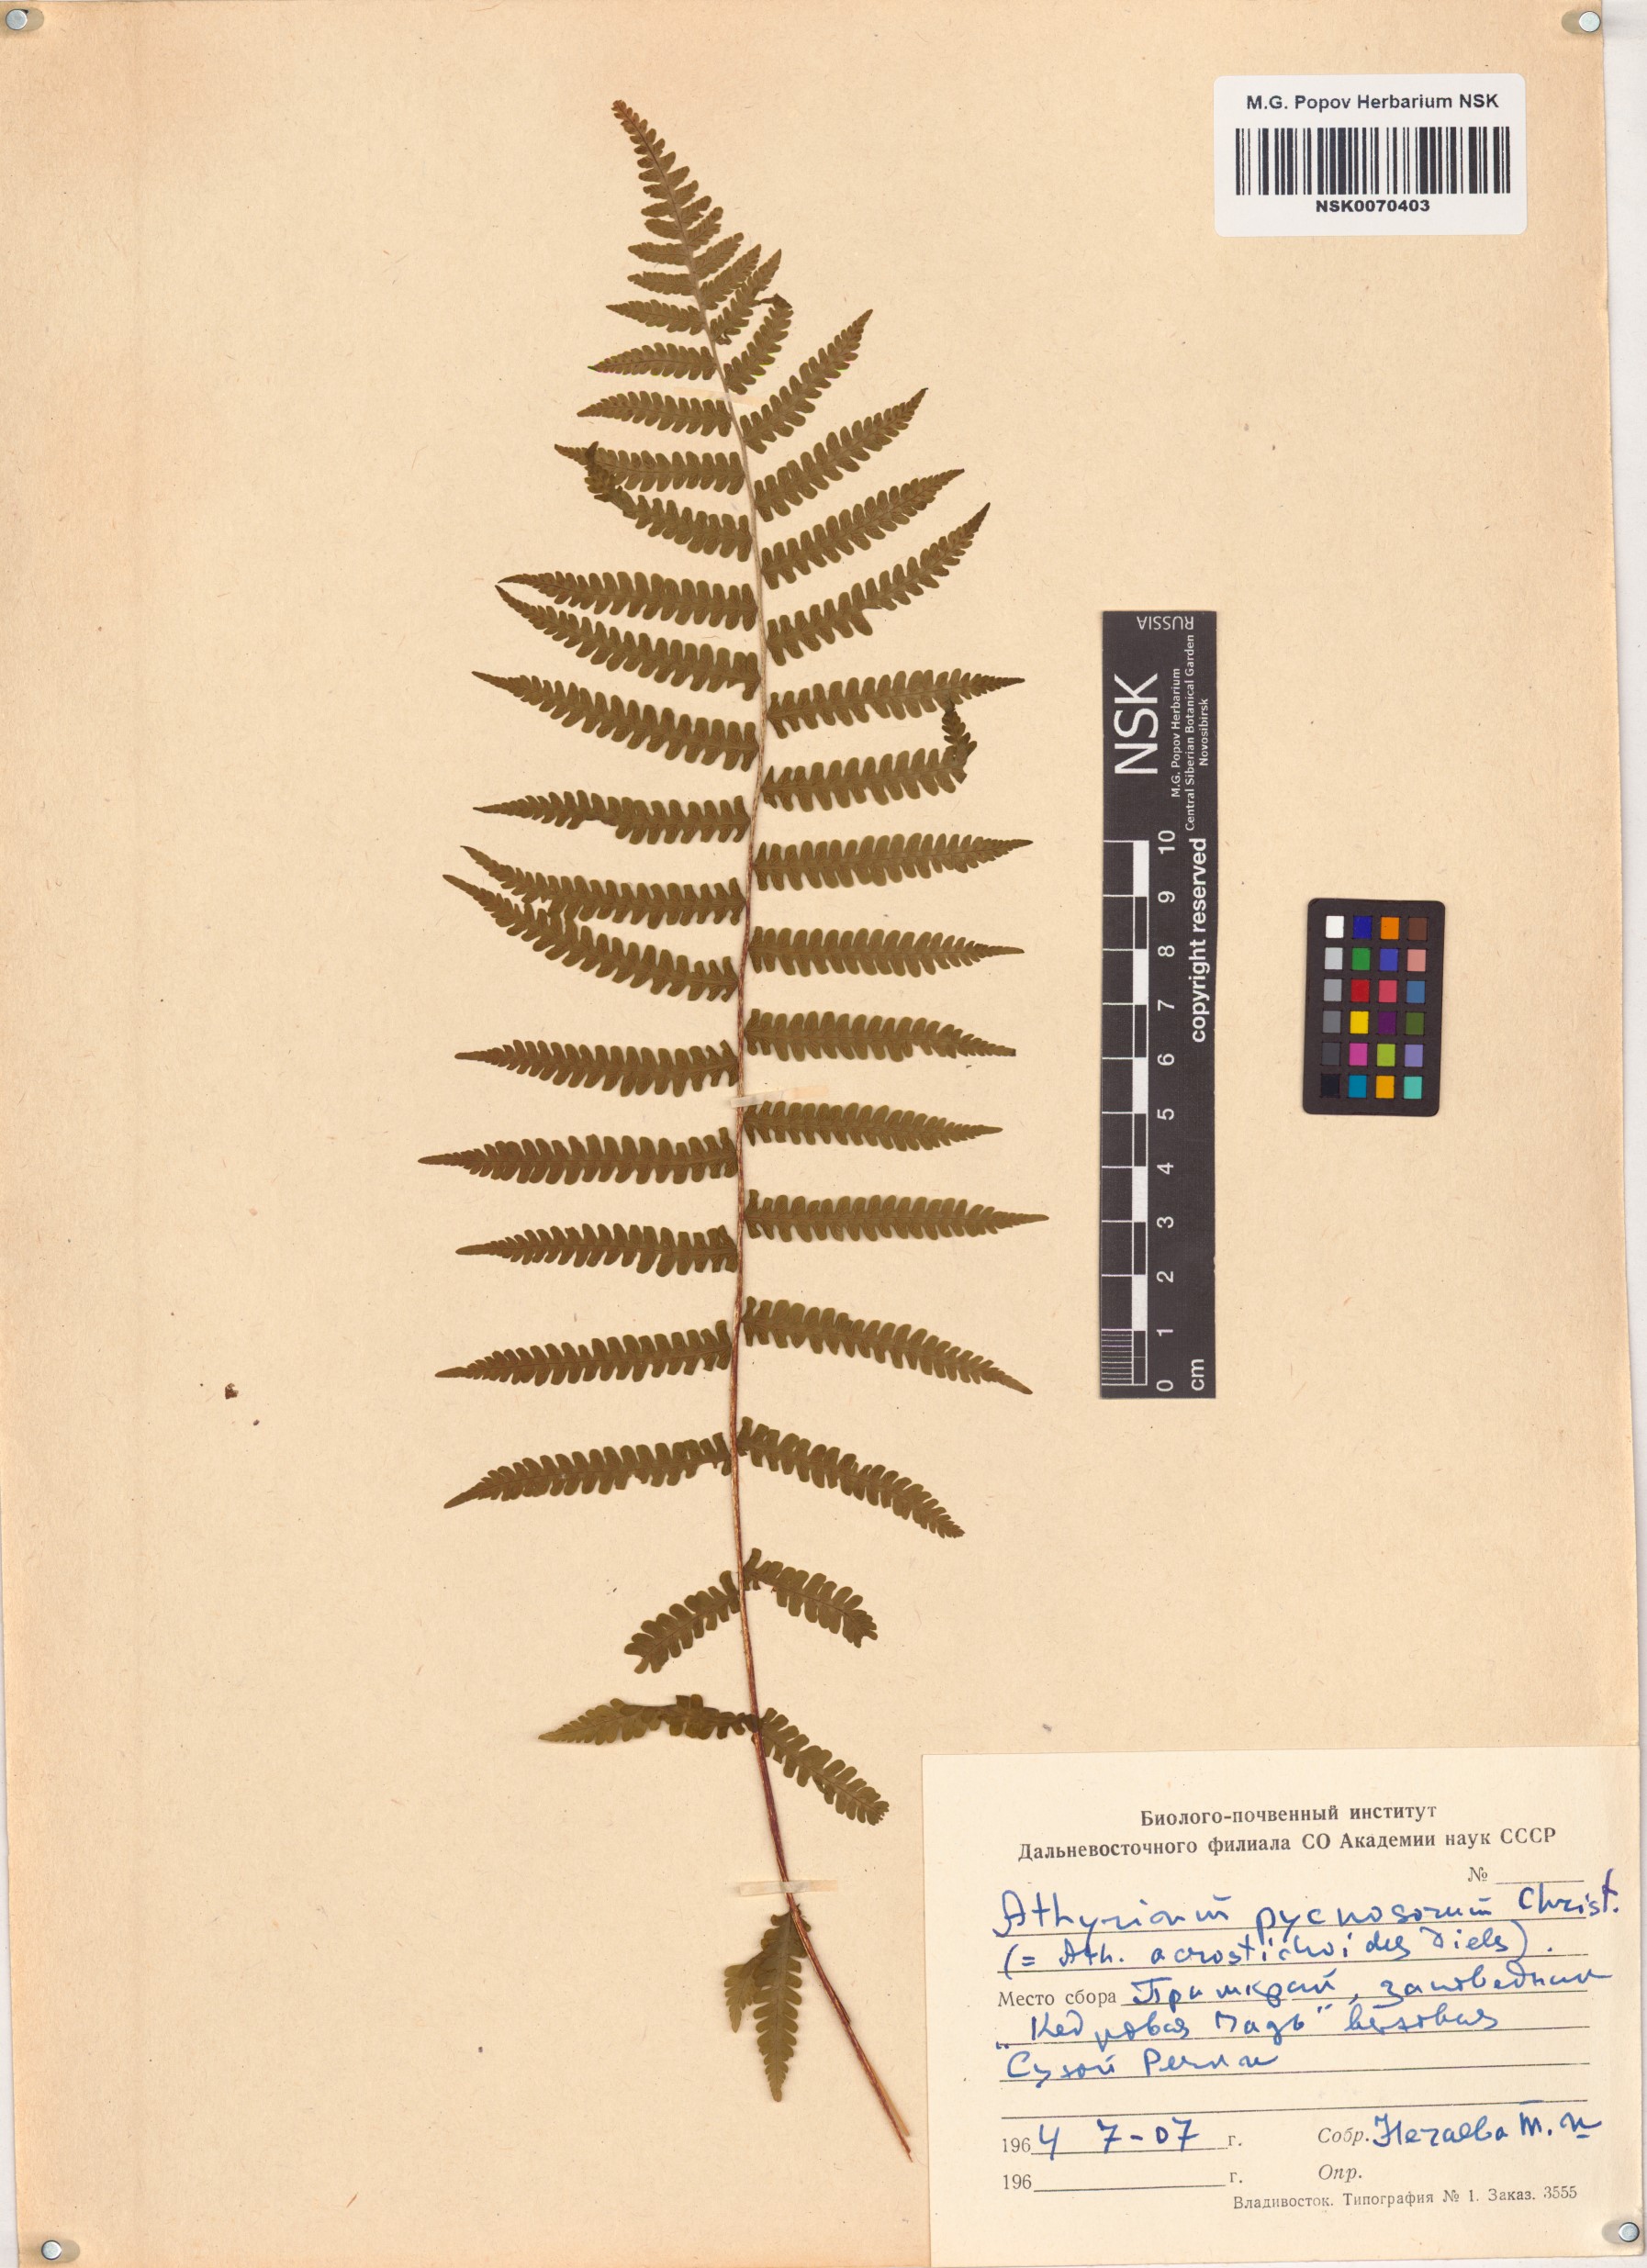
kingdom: Plantae
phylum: Tracheophyta
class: Polypodiopsida
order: Polypodiales
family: Athyriaceae
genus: Deparia
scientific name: Deparia pycnosora
